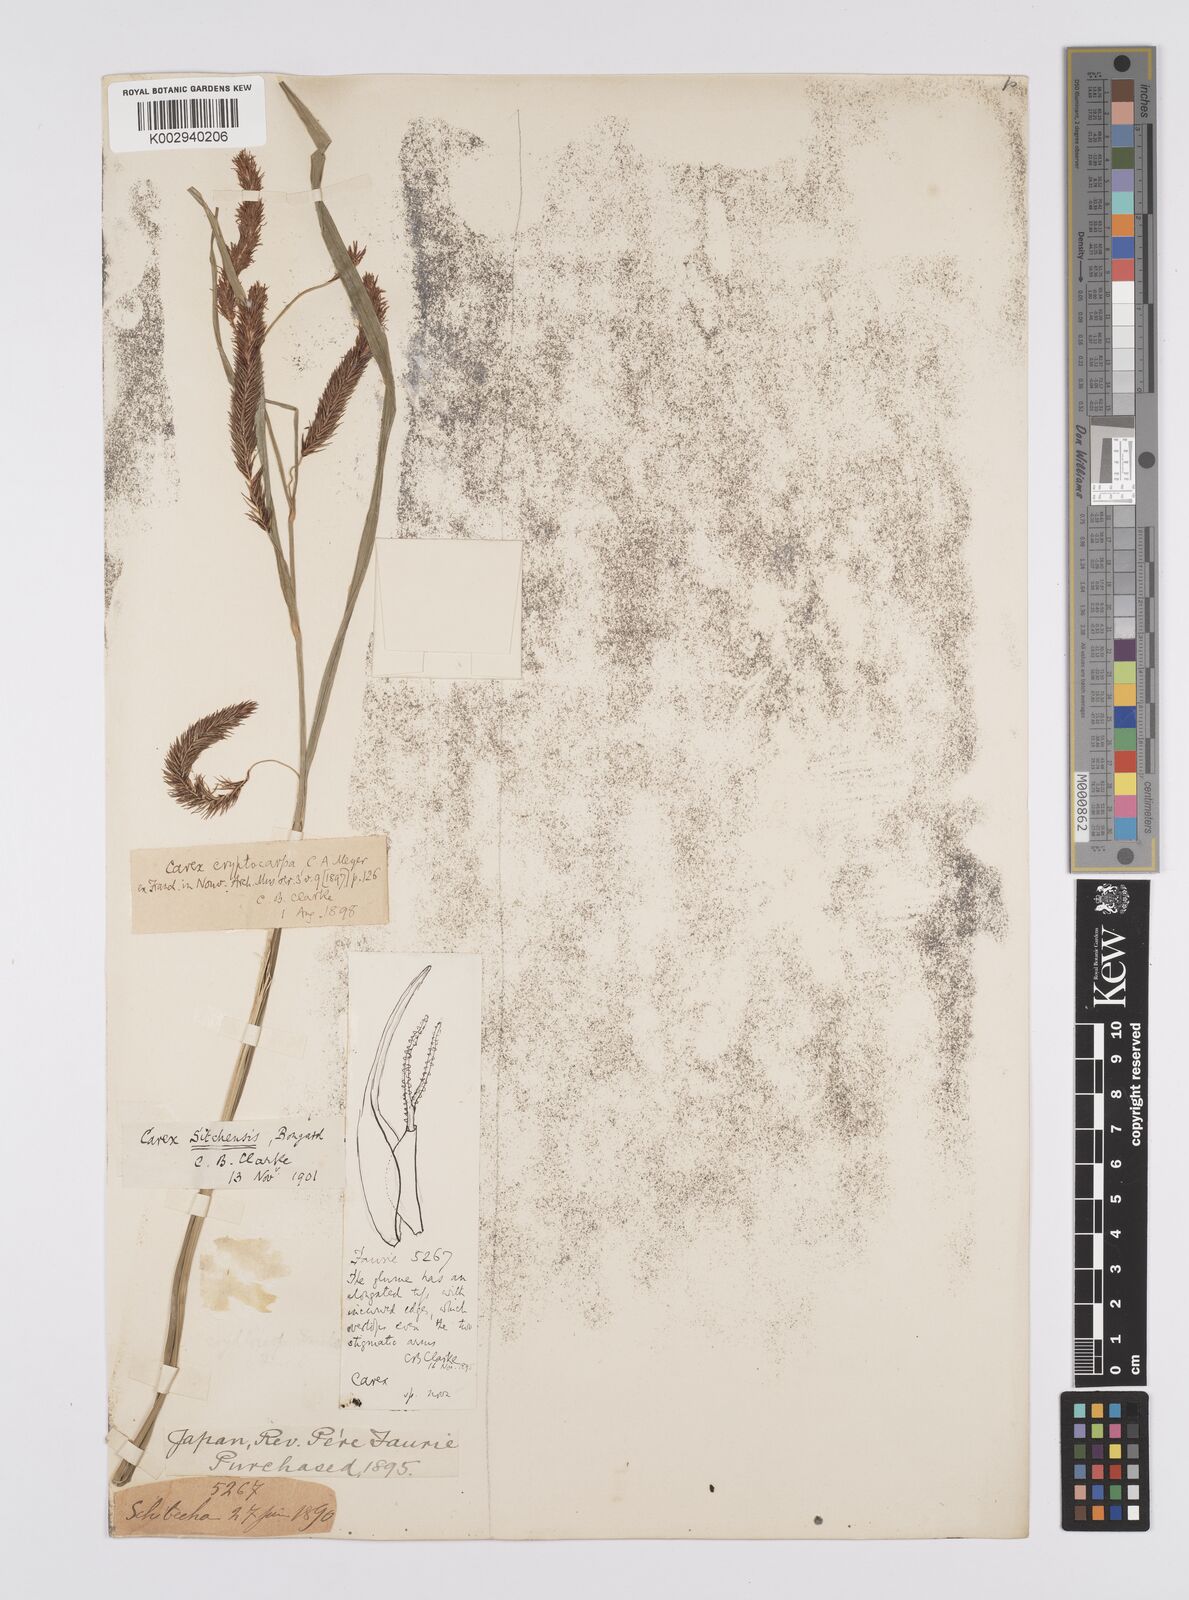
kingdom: Plantae
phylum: Tracheophyta
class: Liliopsida
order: Poales
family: Cyperaceae
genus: Carex
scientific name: Carex aquatilis
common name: Water sedge
